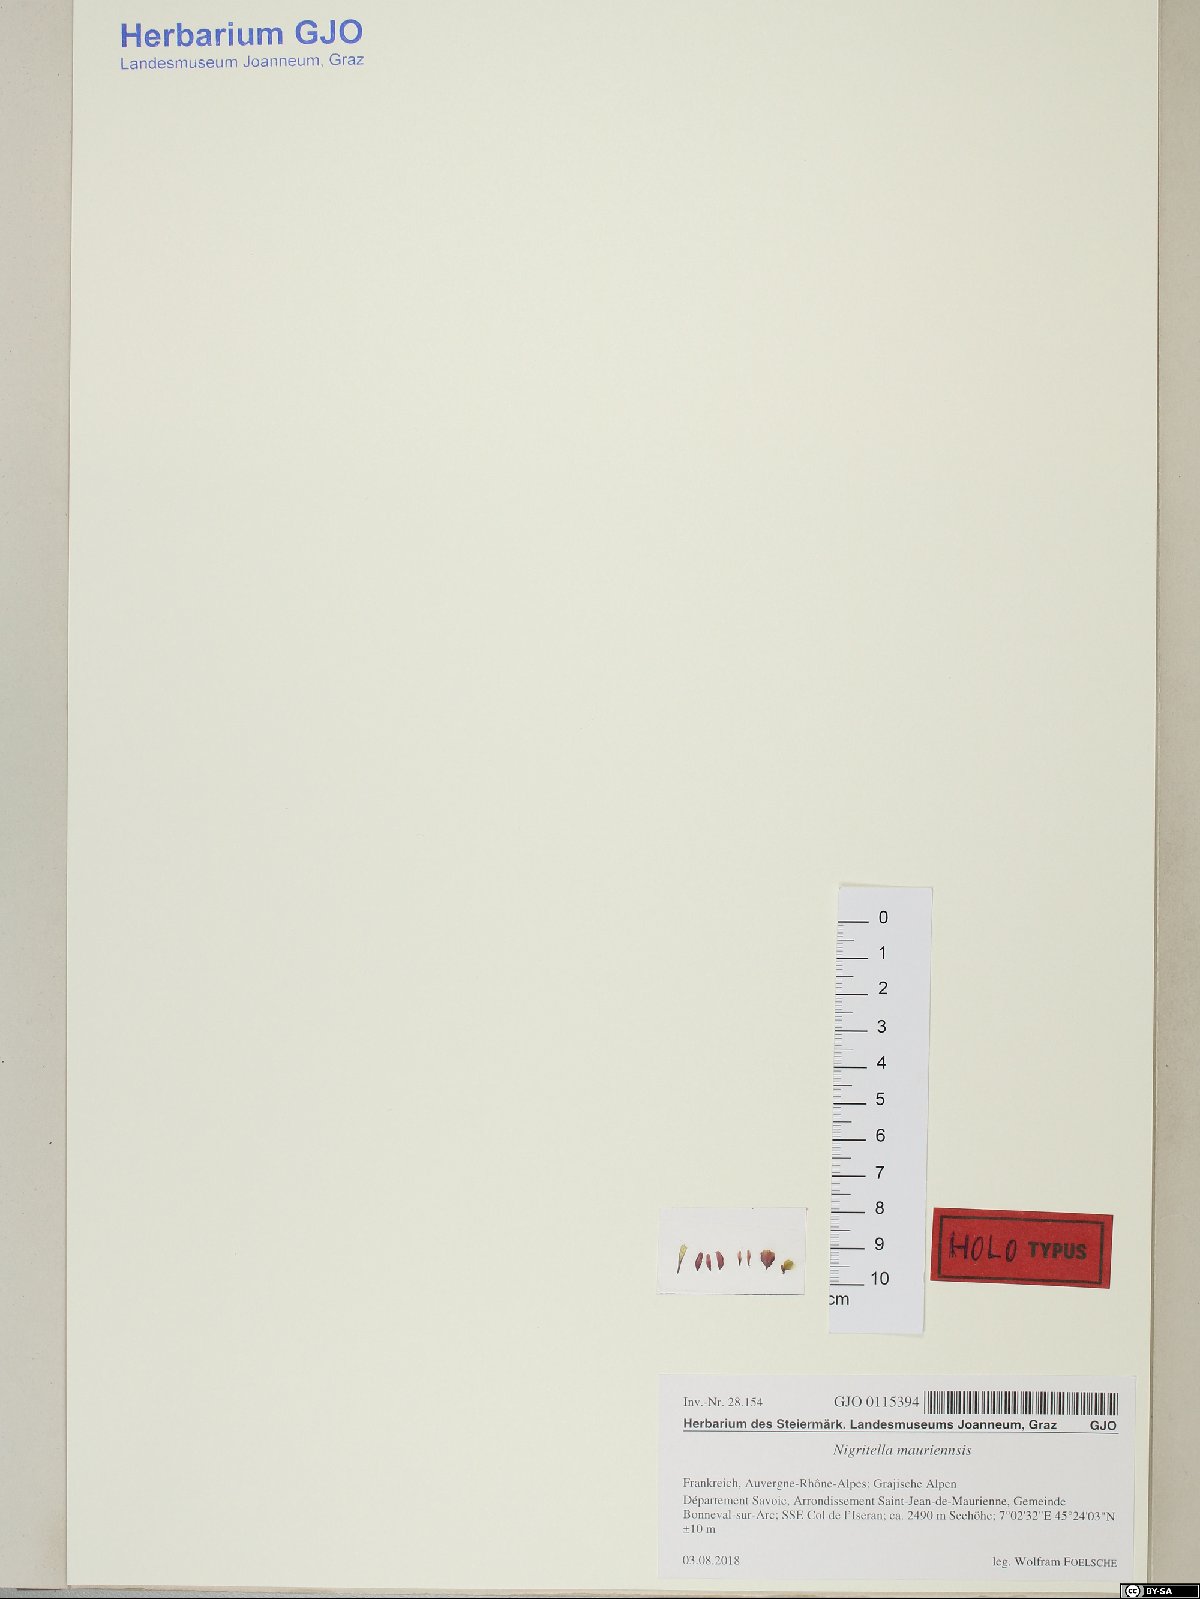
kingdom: Animalia
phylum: Mollusca
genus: Nigritella
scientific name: Nigritella
